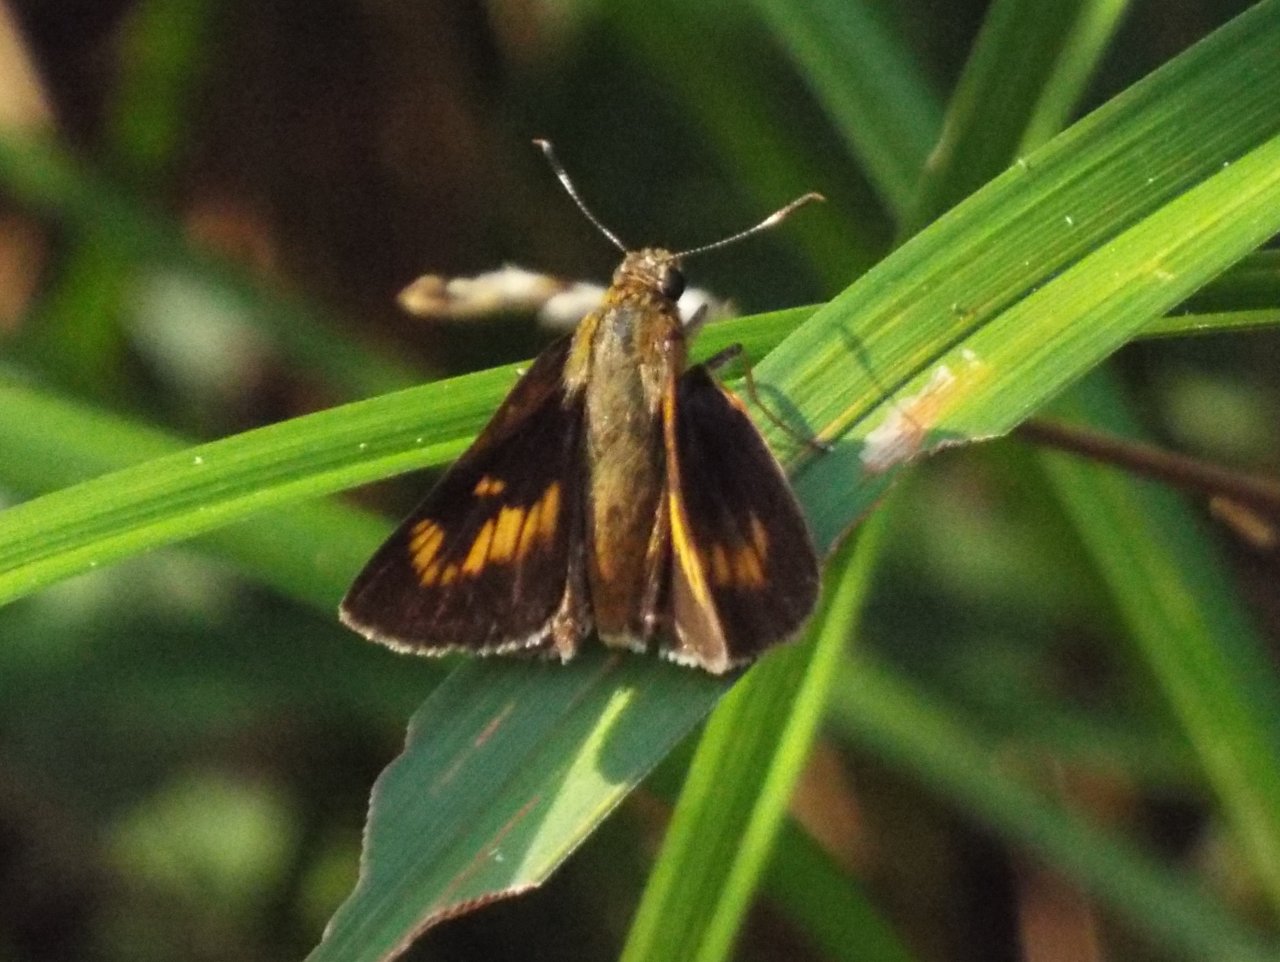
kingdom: Animalia
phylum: Arthropoda
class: Insecta
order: Lepidoptera
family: Hesperiidae
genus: Problema
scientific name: Problema byssus
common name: Byssus Skipper
